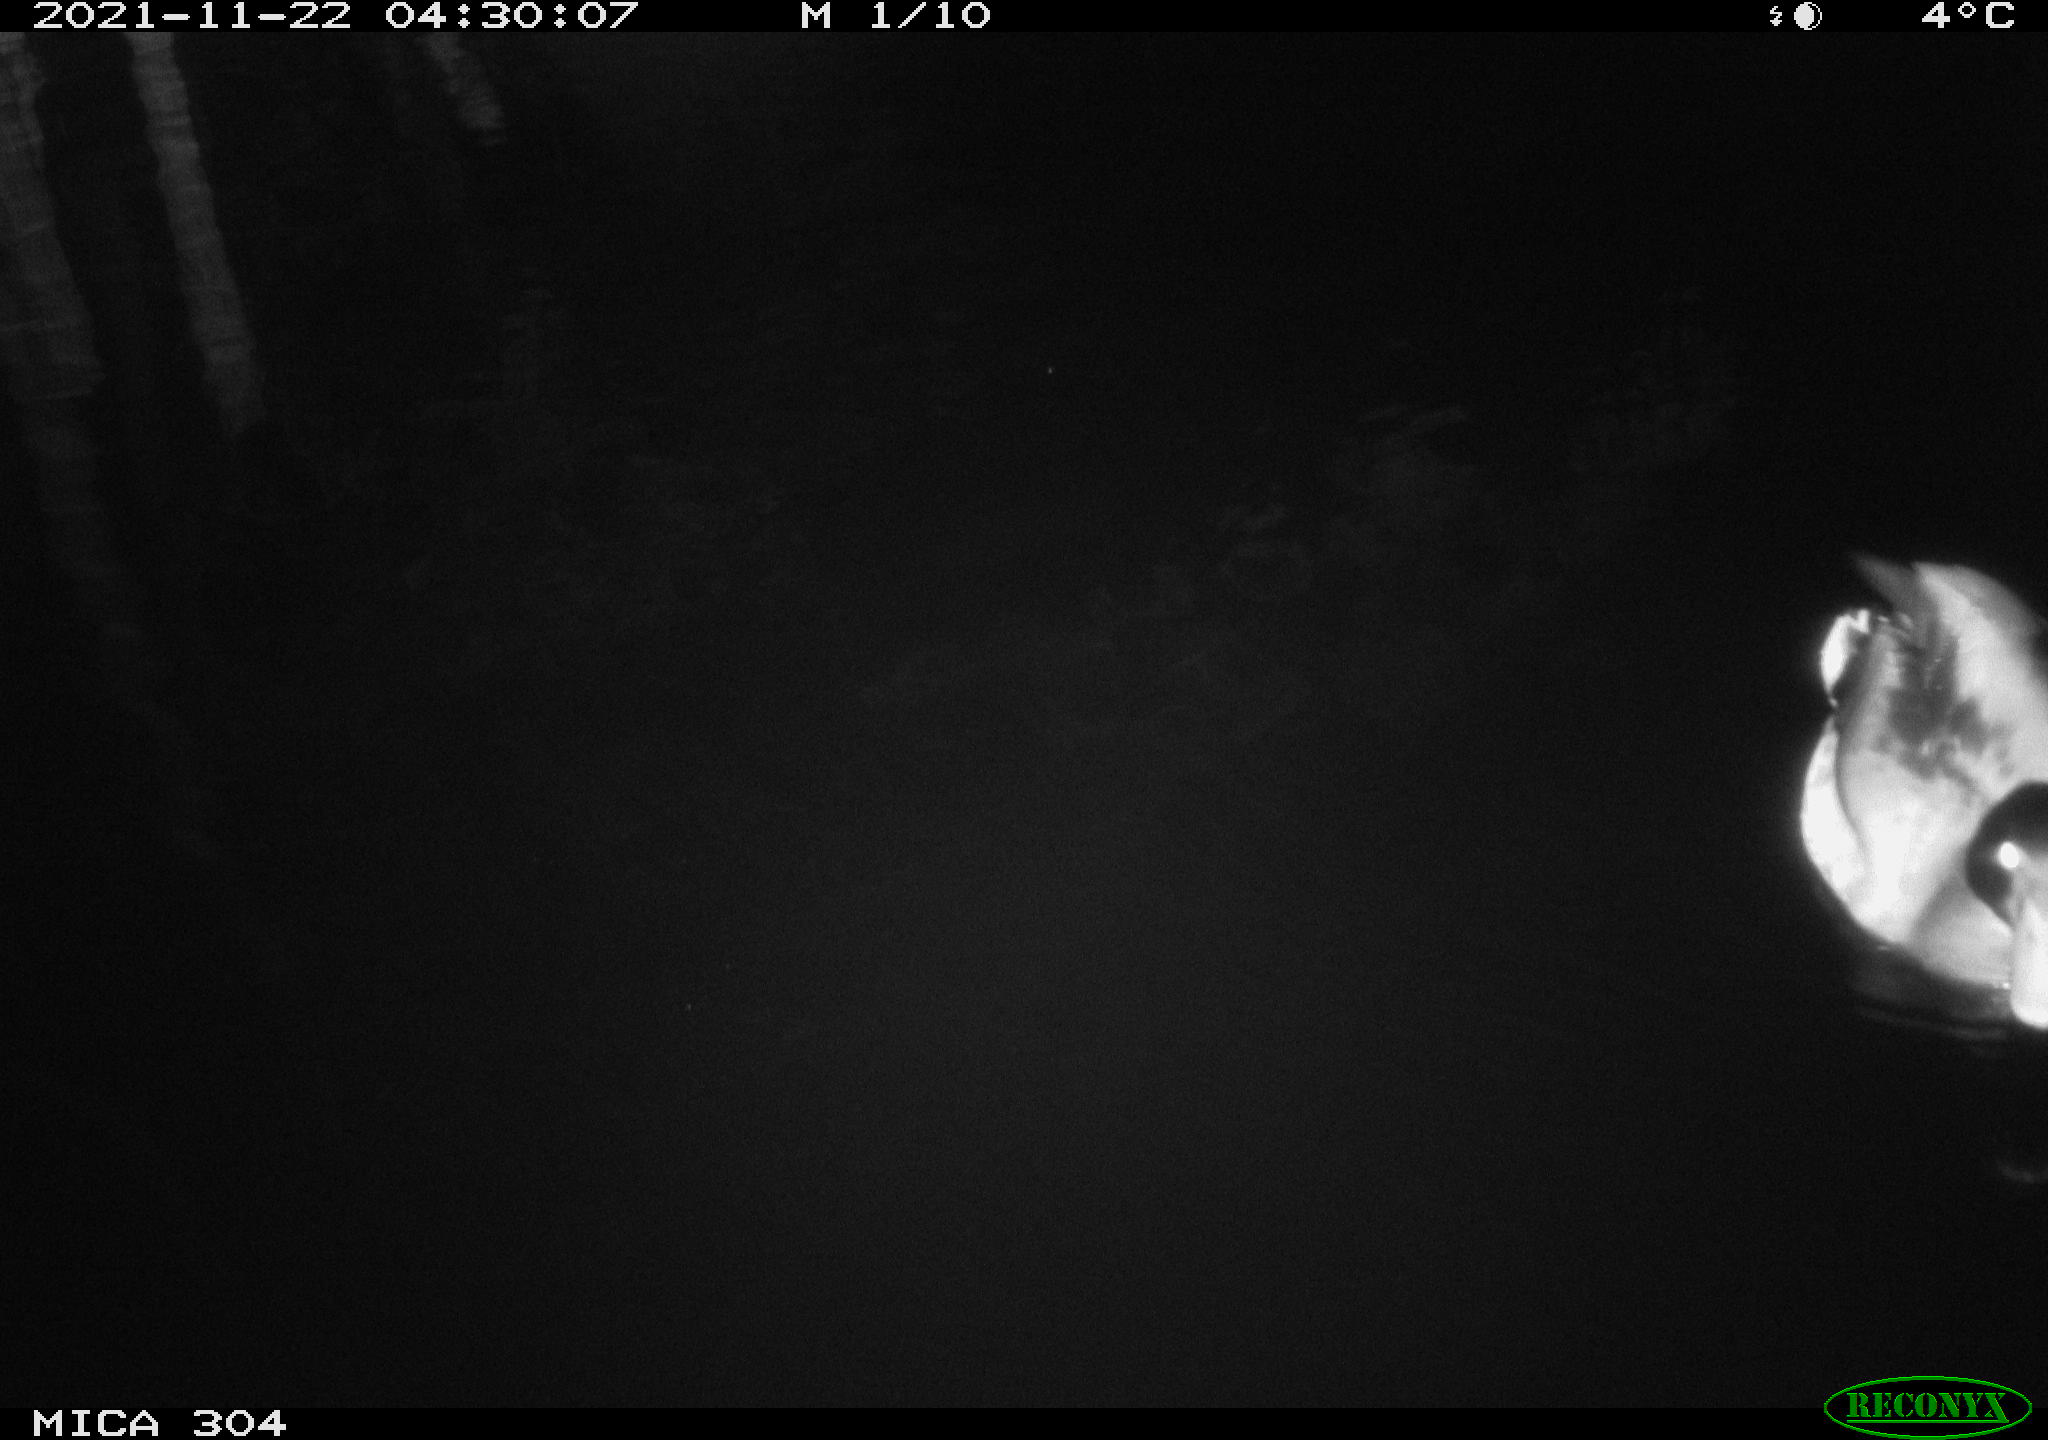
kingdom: Animalia
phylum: Chordata
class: Aves
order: Anseriformes
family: Anatidae
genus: Anas
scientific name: Anas platyrhynchos
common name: Mallard
